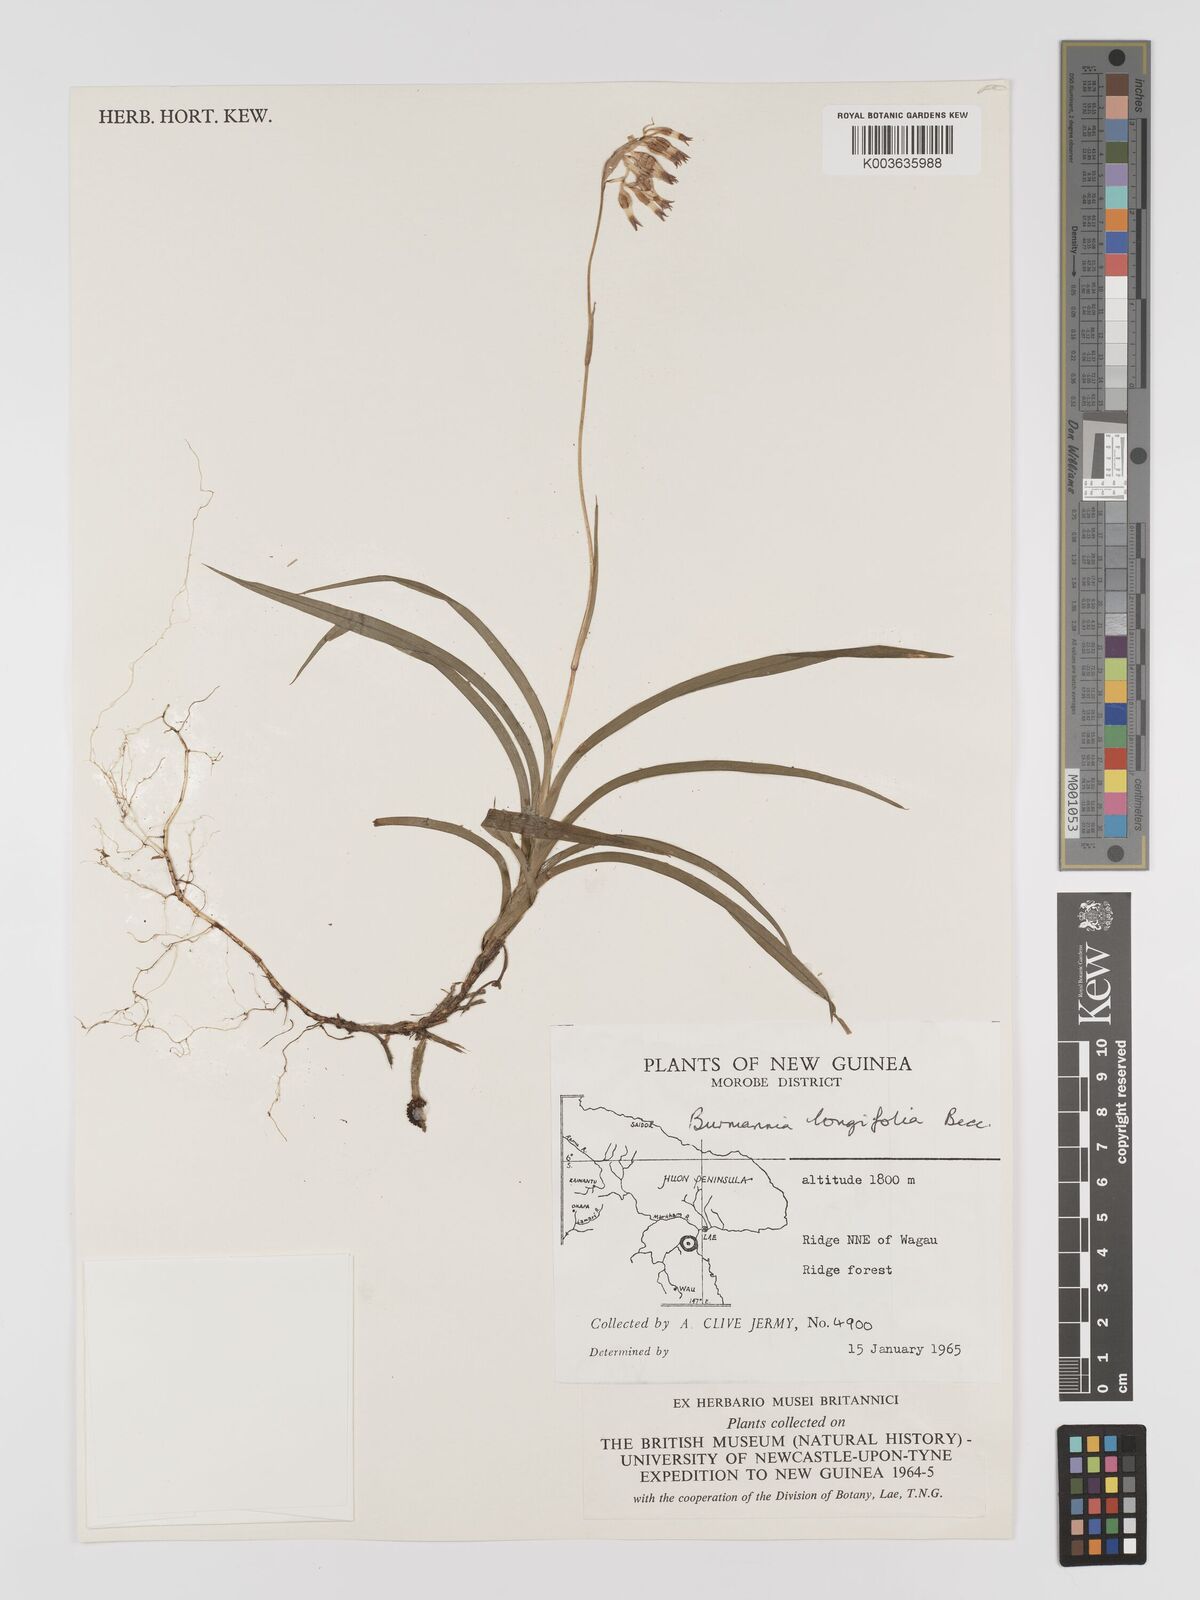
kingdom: Plantae
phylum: Tracheophyta
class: Liliopsida
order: Dioscoreales
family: Burmanniaceae
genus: Burmannia
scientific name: Burmannia longifolia
